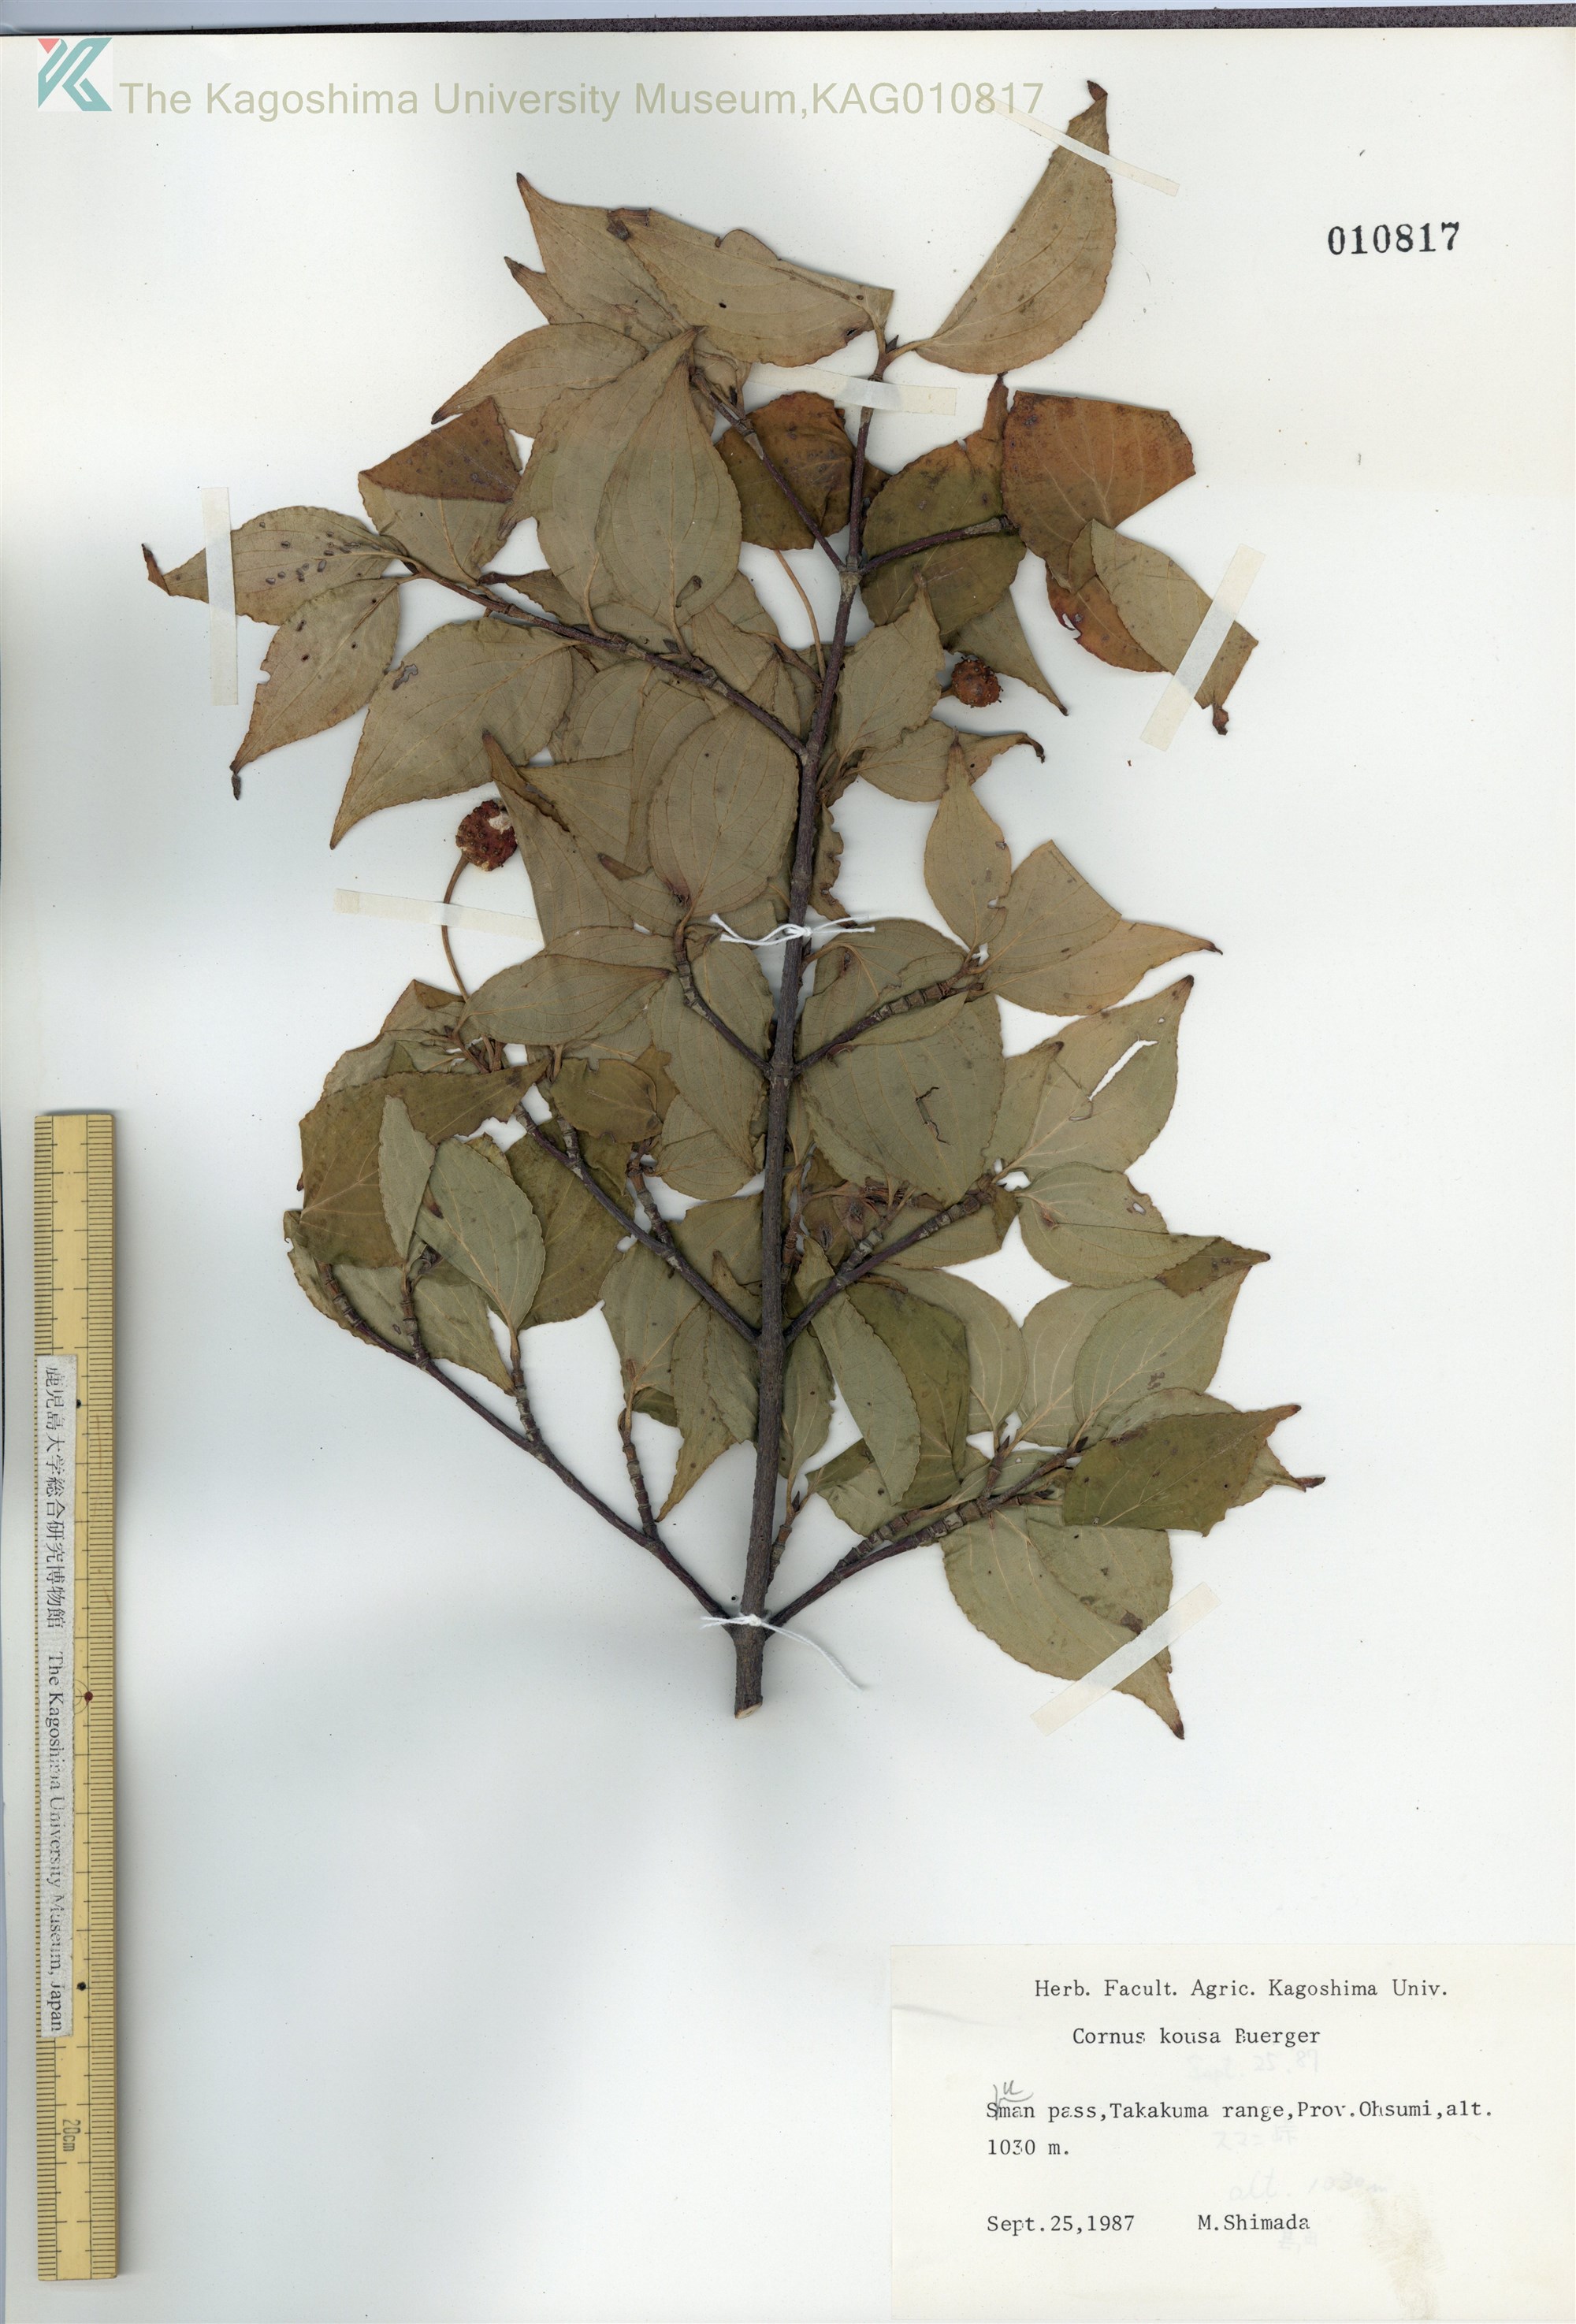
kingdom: Plantae
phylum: Tracheophyta
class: Magnoliopsida
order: Cornales
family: Cornaceae
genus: Cornus
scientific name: Cornus kousa
